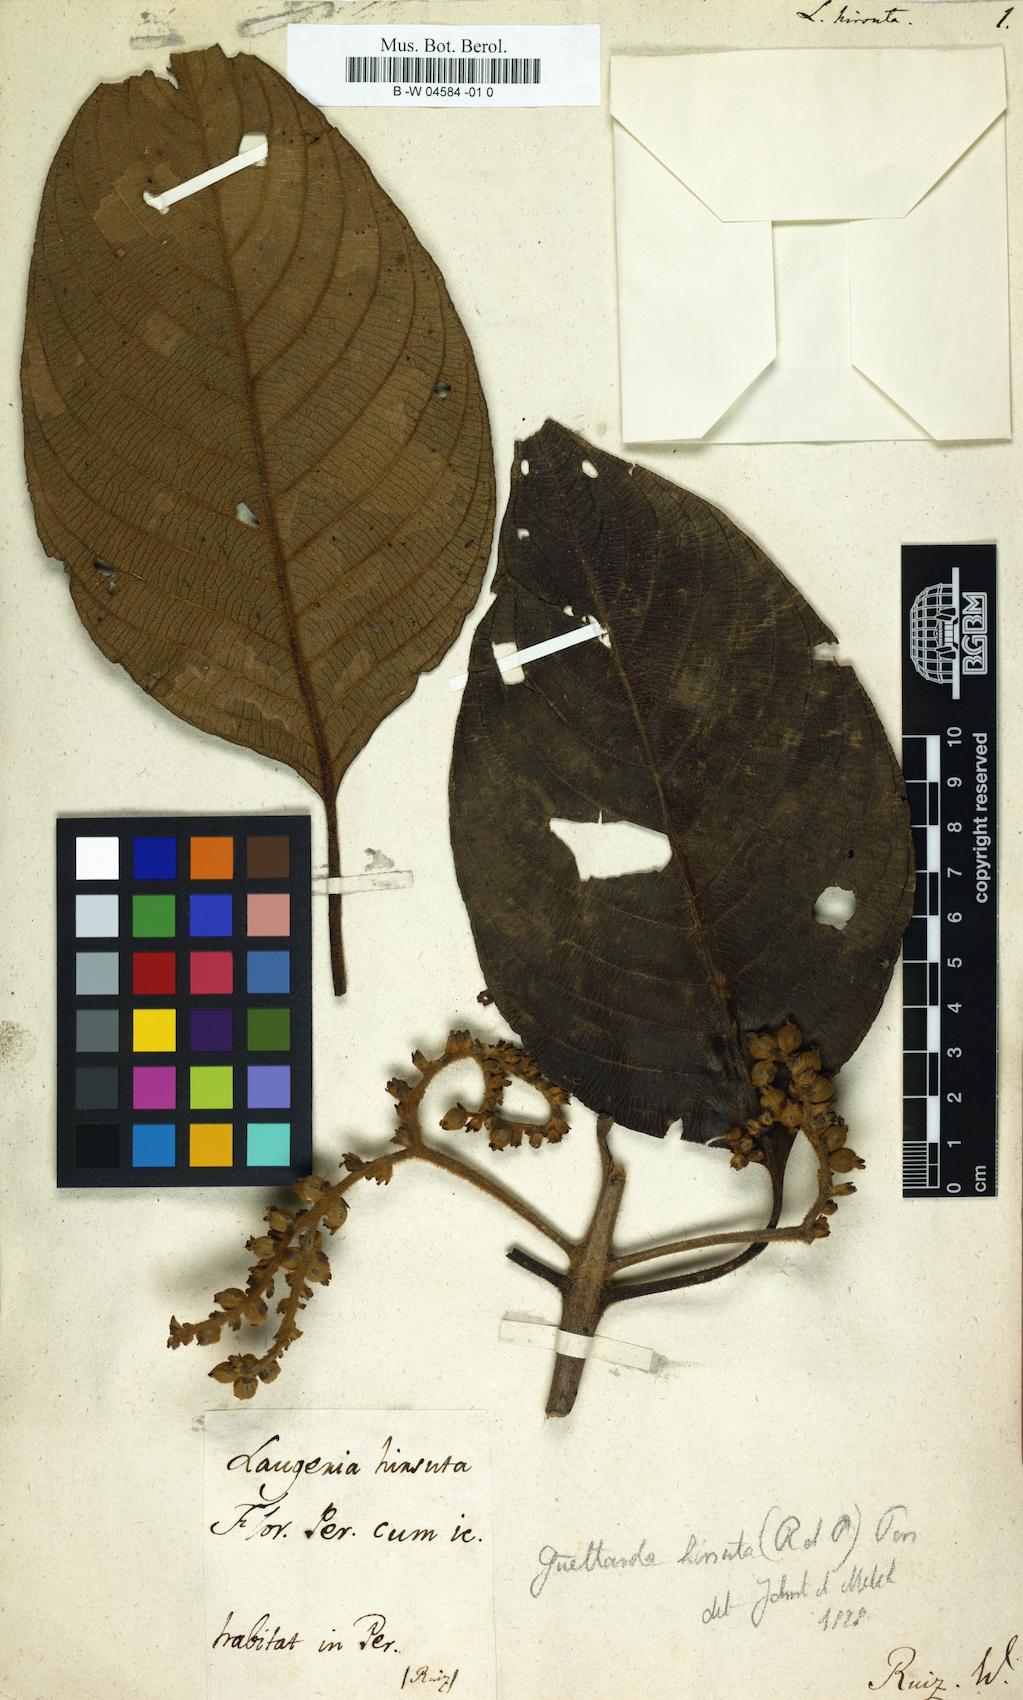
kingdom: Plantae
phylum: Tracheophyta
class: Magnoliopsida
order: Gentianales
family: Rubiaceae
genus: Tournefortiopsis
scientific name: Tournefortiopsis hirsuta
